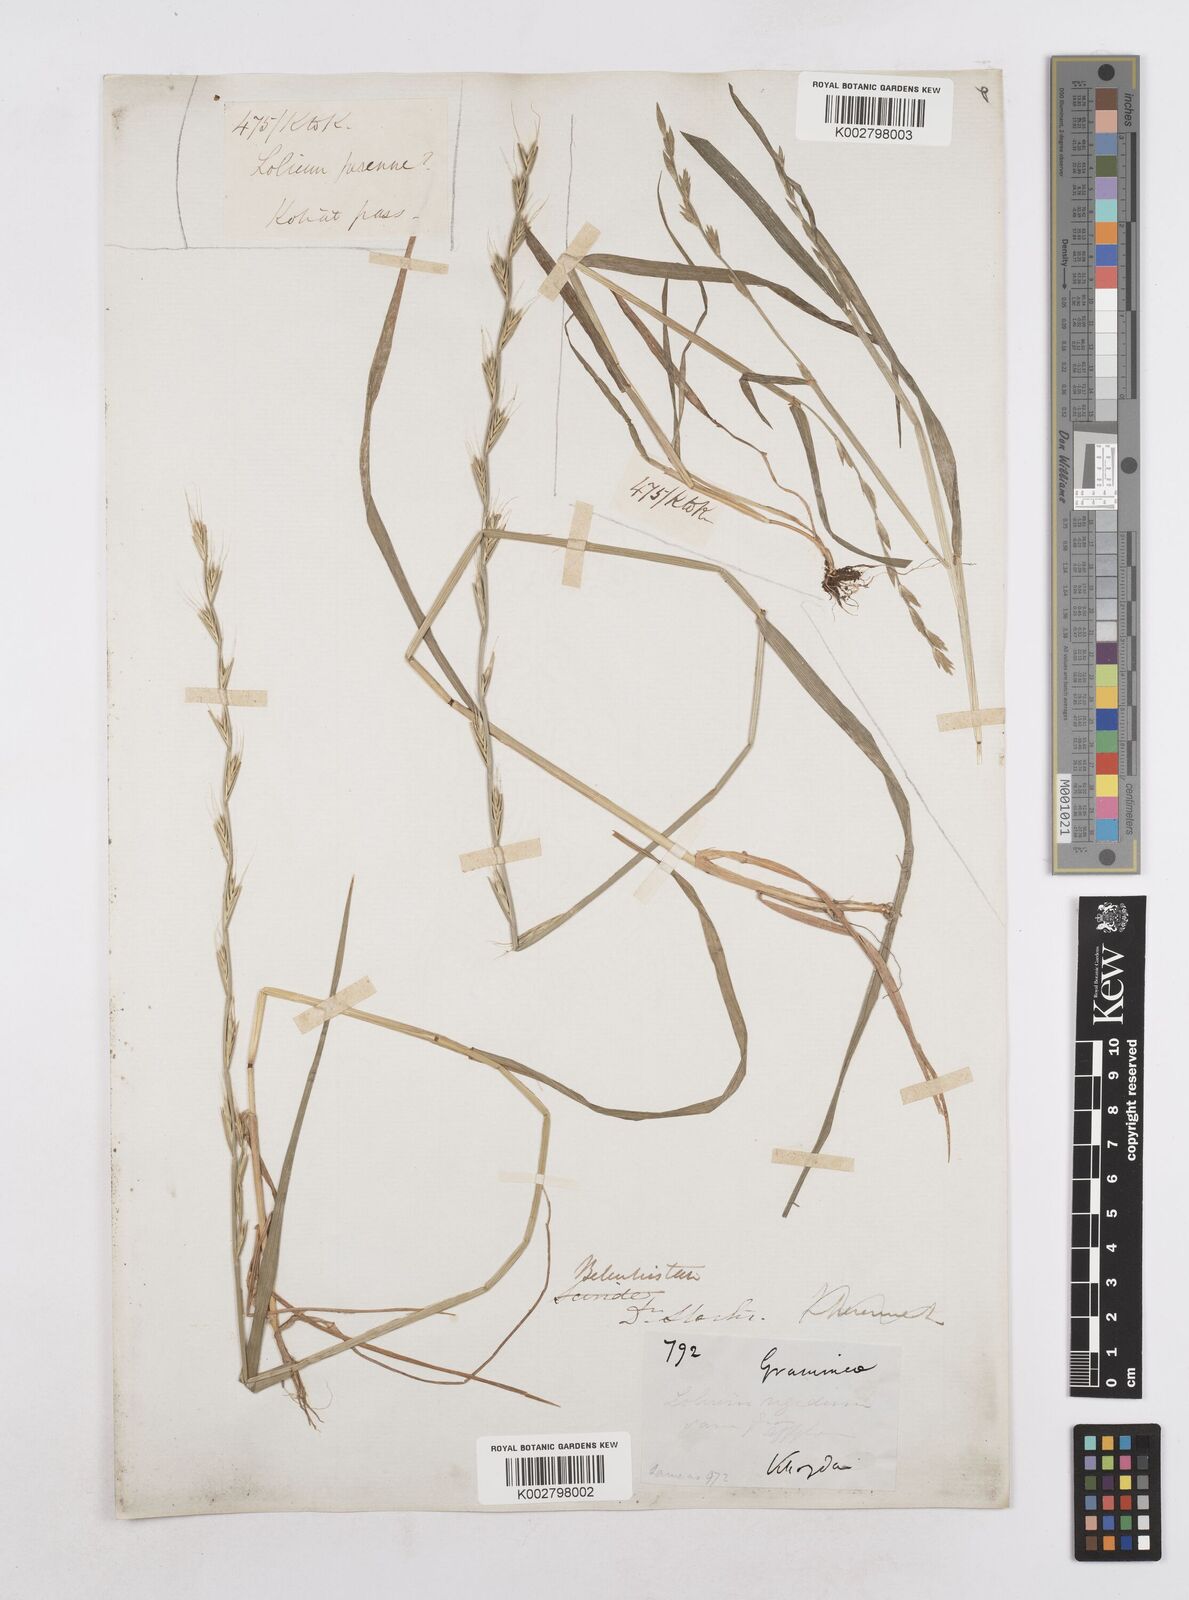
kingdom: Plantae
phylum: Tracheophyta
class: Liliopsida
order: Poales
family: Poaceae
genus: Lolium
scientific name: Lolium persicum
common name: Persian ryegrass
